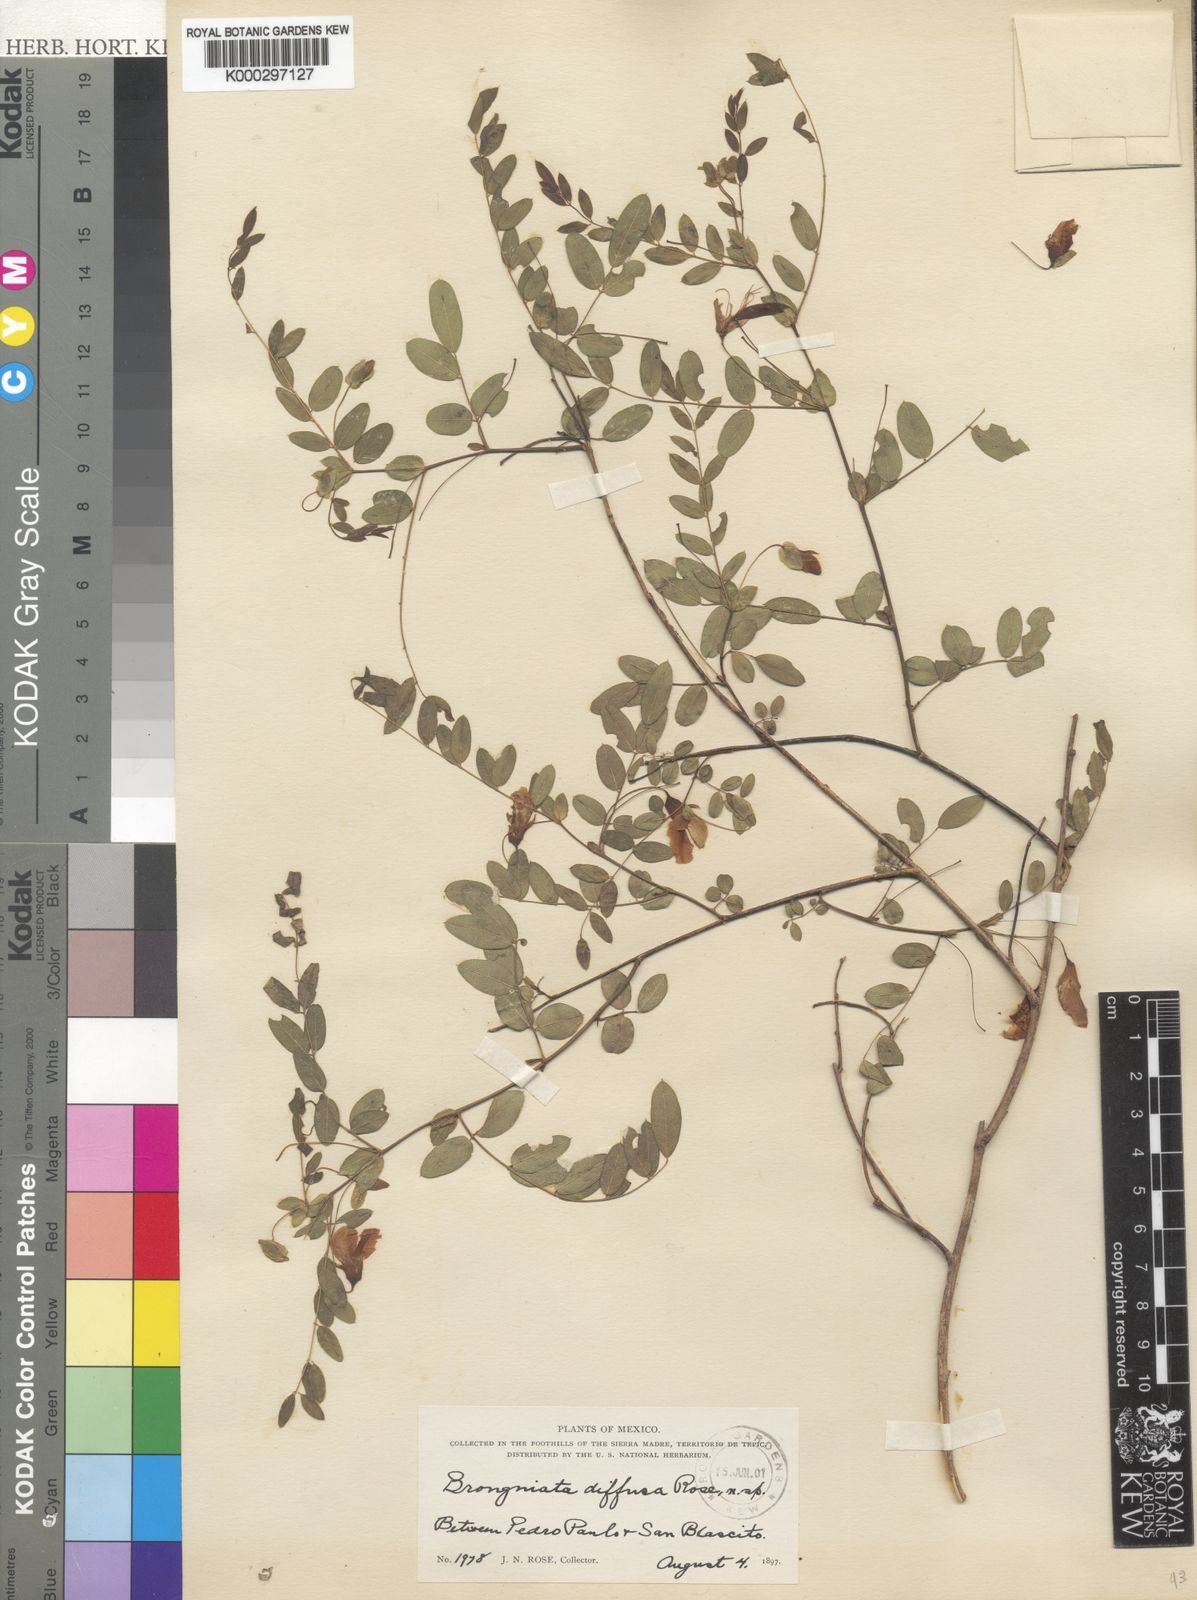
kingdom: Plantae
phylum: Tracheophyta
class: Magnoliopsida
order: Fabales
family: Fabaceae
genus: Brongniartia
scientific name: Brongniartia diffusa
